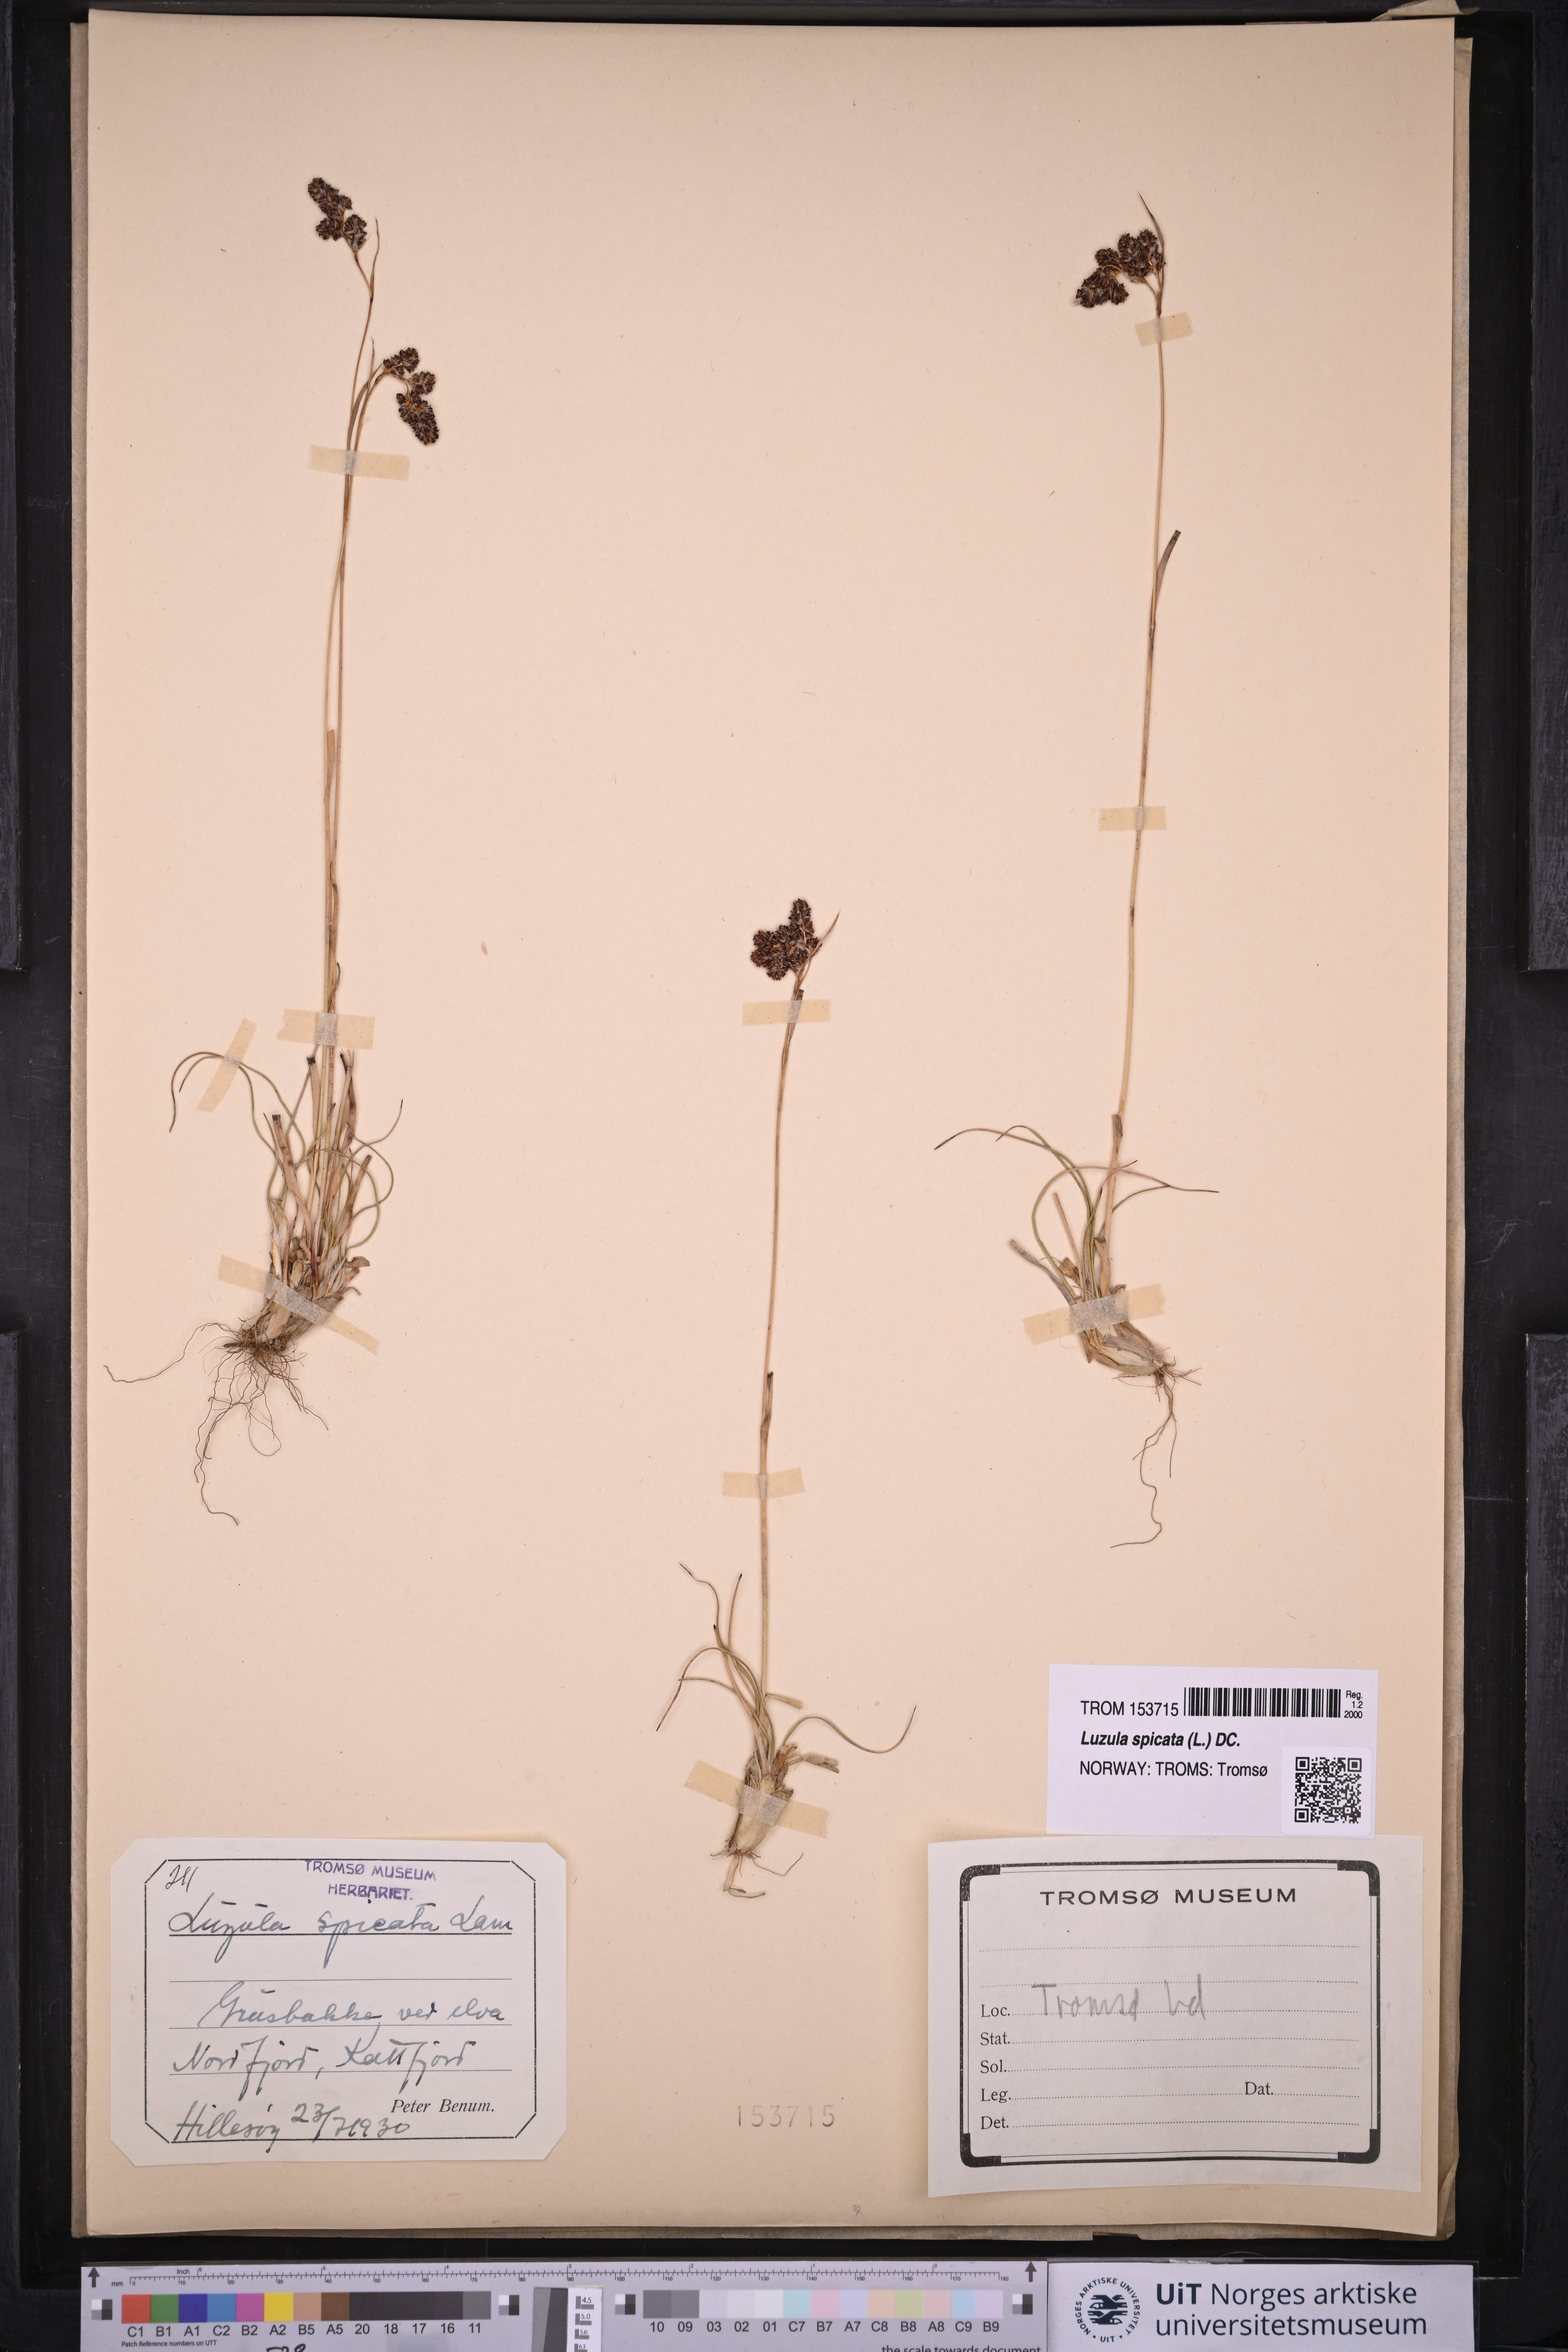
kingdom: Plantae
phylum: Tracheophyta
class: Liliopsida
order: Poales
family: Juncaceae
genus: Luzula
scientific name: Luzula spicata
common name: Spiked wood-rush
